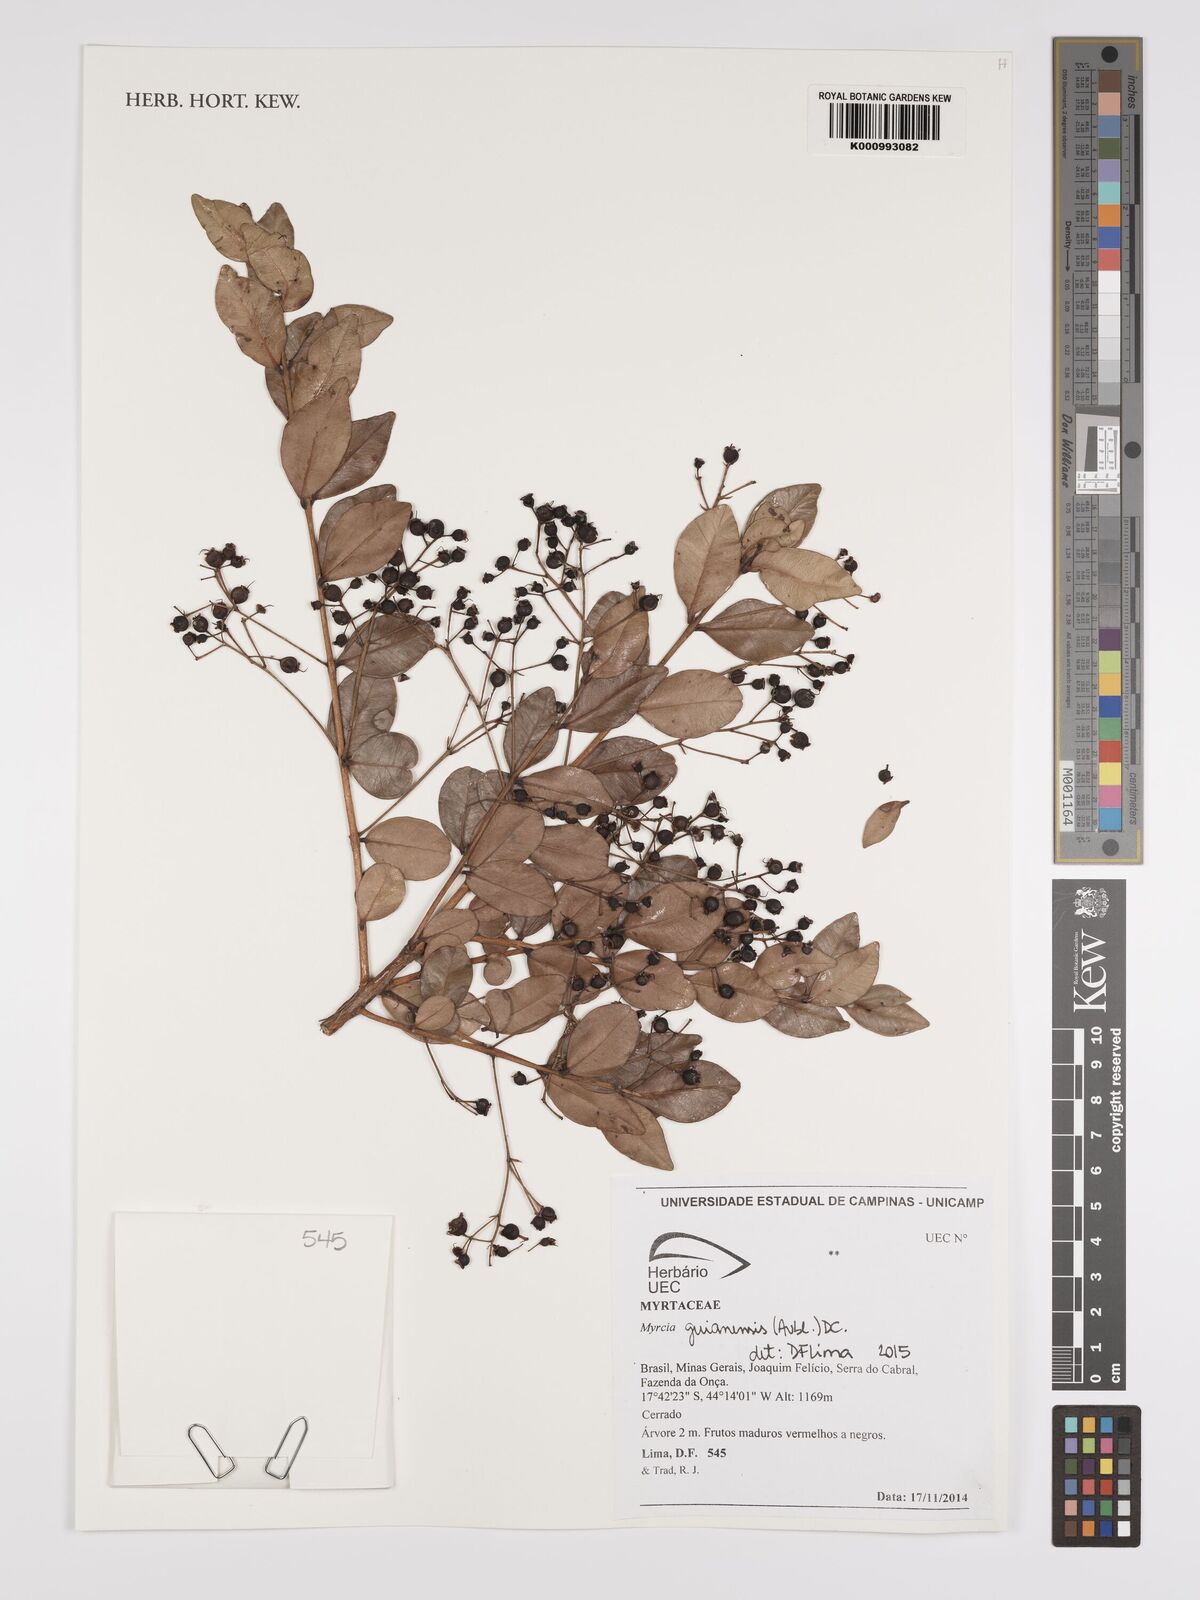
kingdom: Plantae
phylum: Tracheophyta
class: Magnoliopsida
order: Myrtales
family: Myrtaceae
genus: Myrcia
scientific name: Myrcia guianensis
